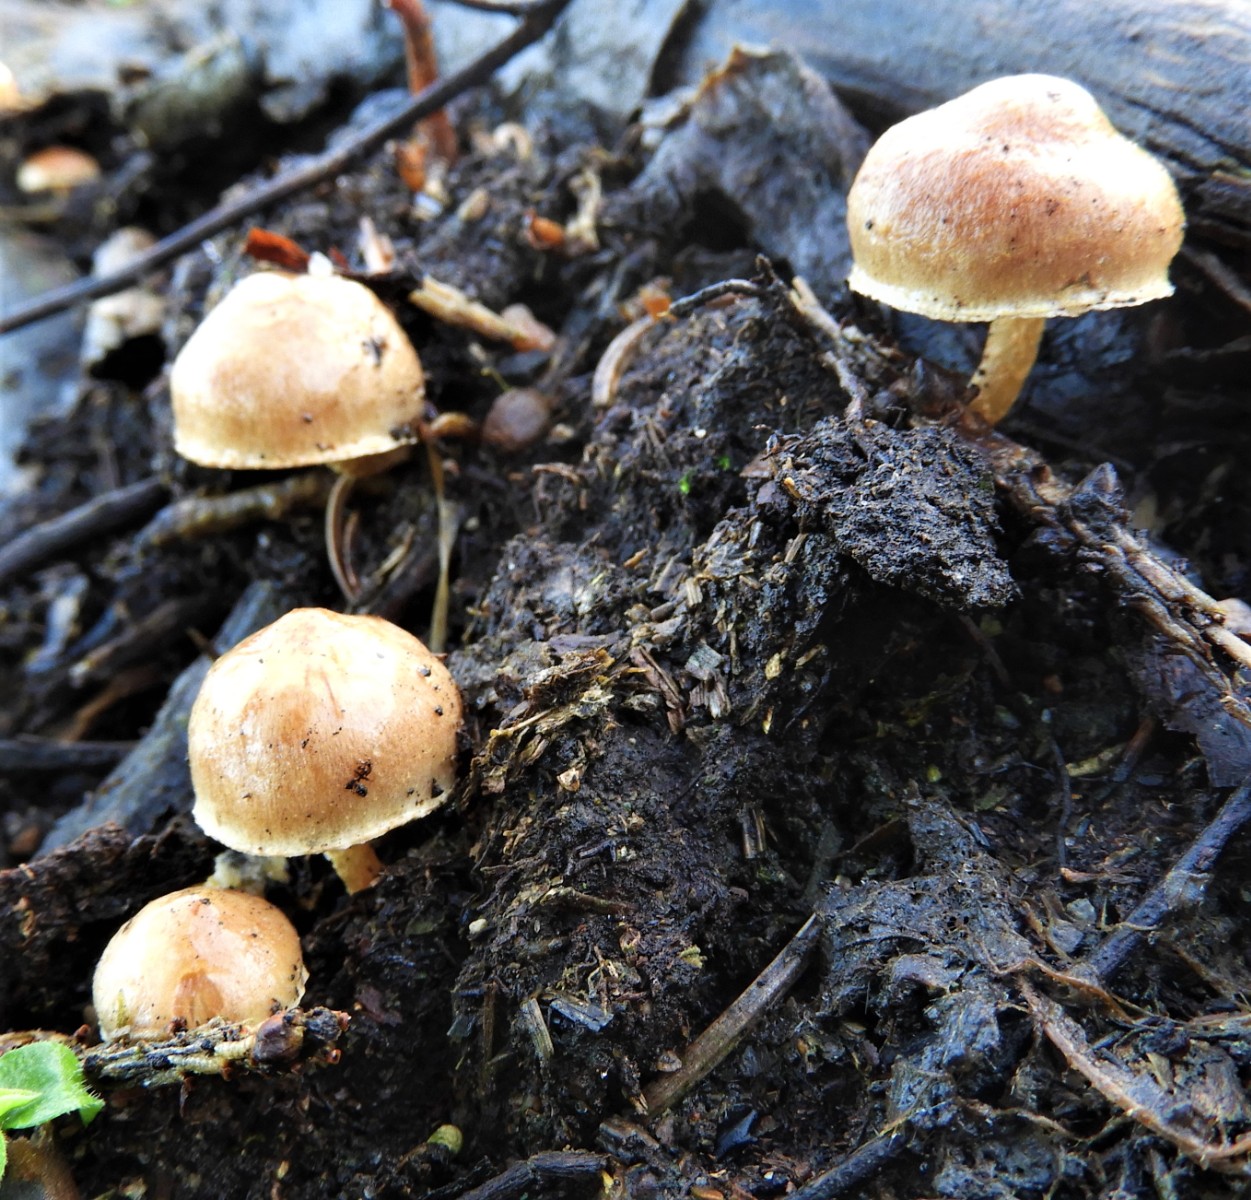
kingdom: Fungi
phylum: Basidiomycota
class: Agaricomycetes
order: Agaricales
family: Strophariaceae
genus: Pholiota
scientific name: Pholiota carbonaria
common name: kul-skælhat
